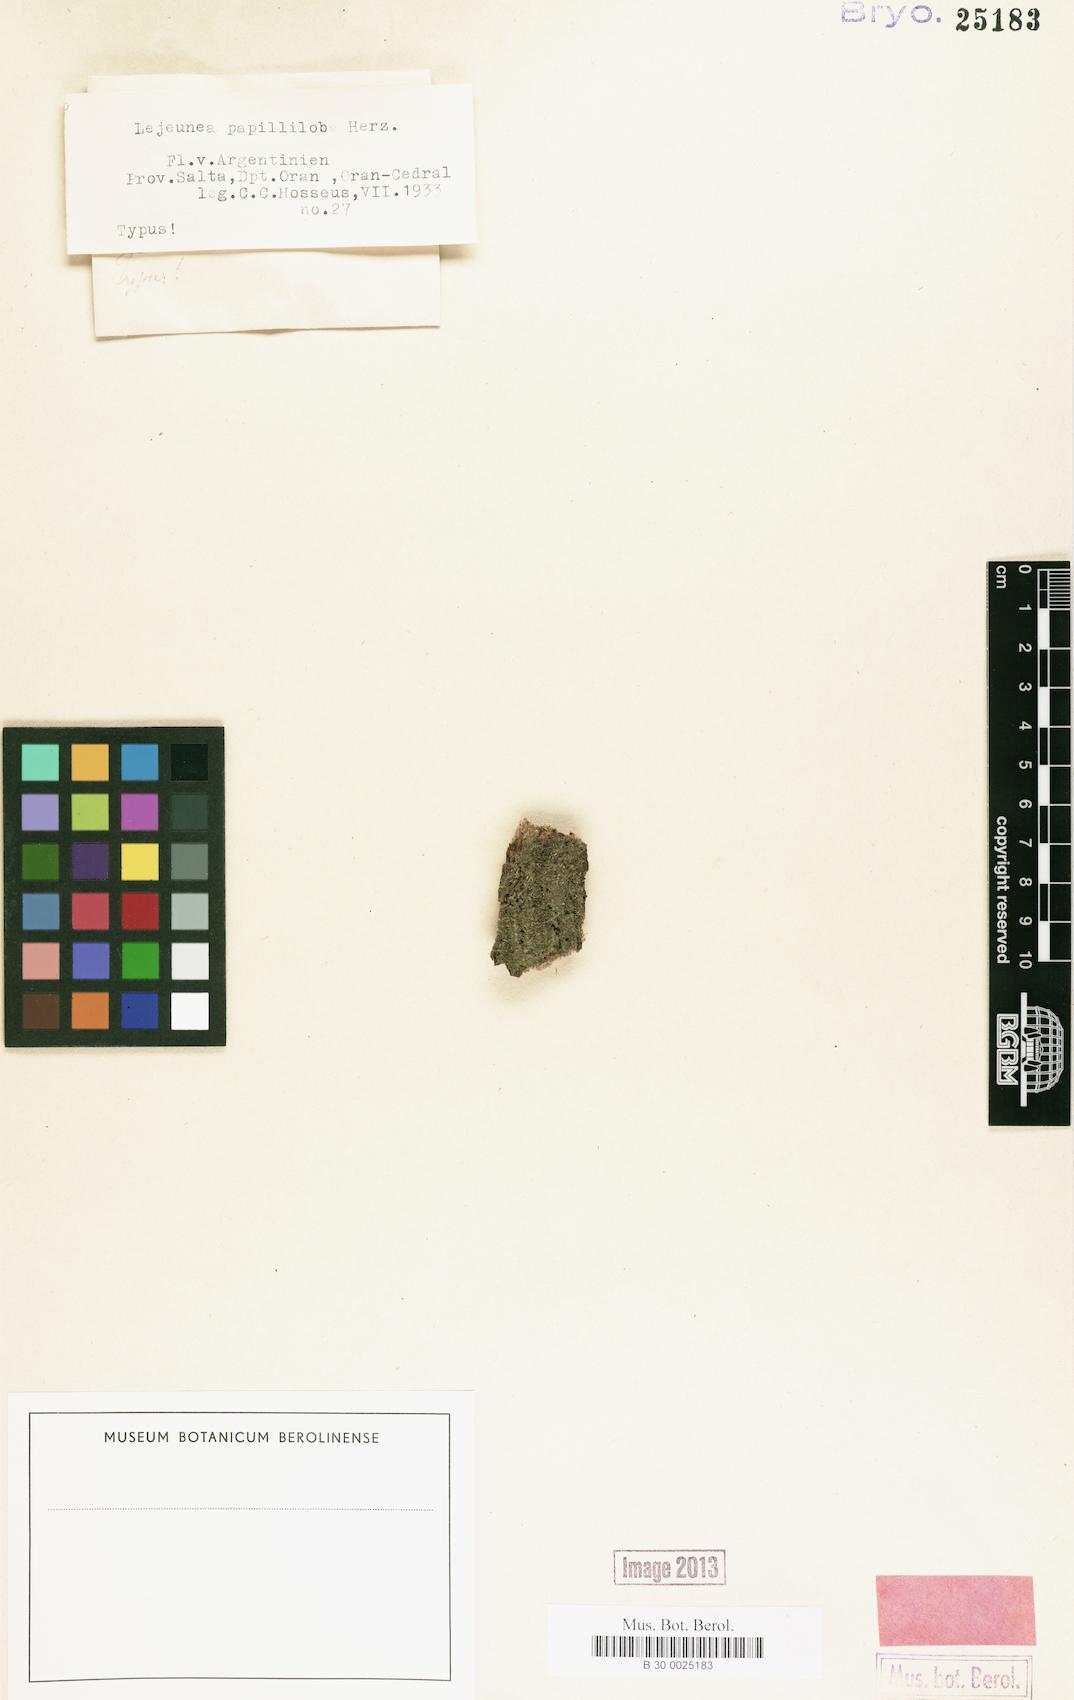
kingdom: Plantae
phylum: Marchantiophyta
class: Jungermanniopsida
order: Porellales
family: Lejeuneaceae
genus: Cololejeunea
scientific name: Cololejeunea papilliloba
